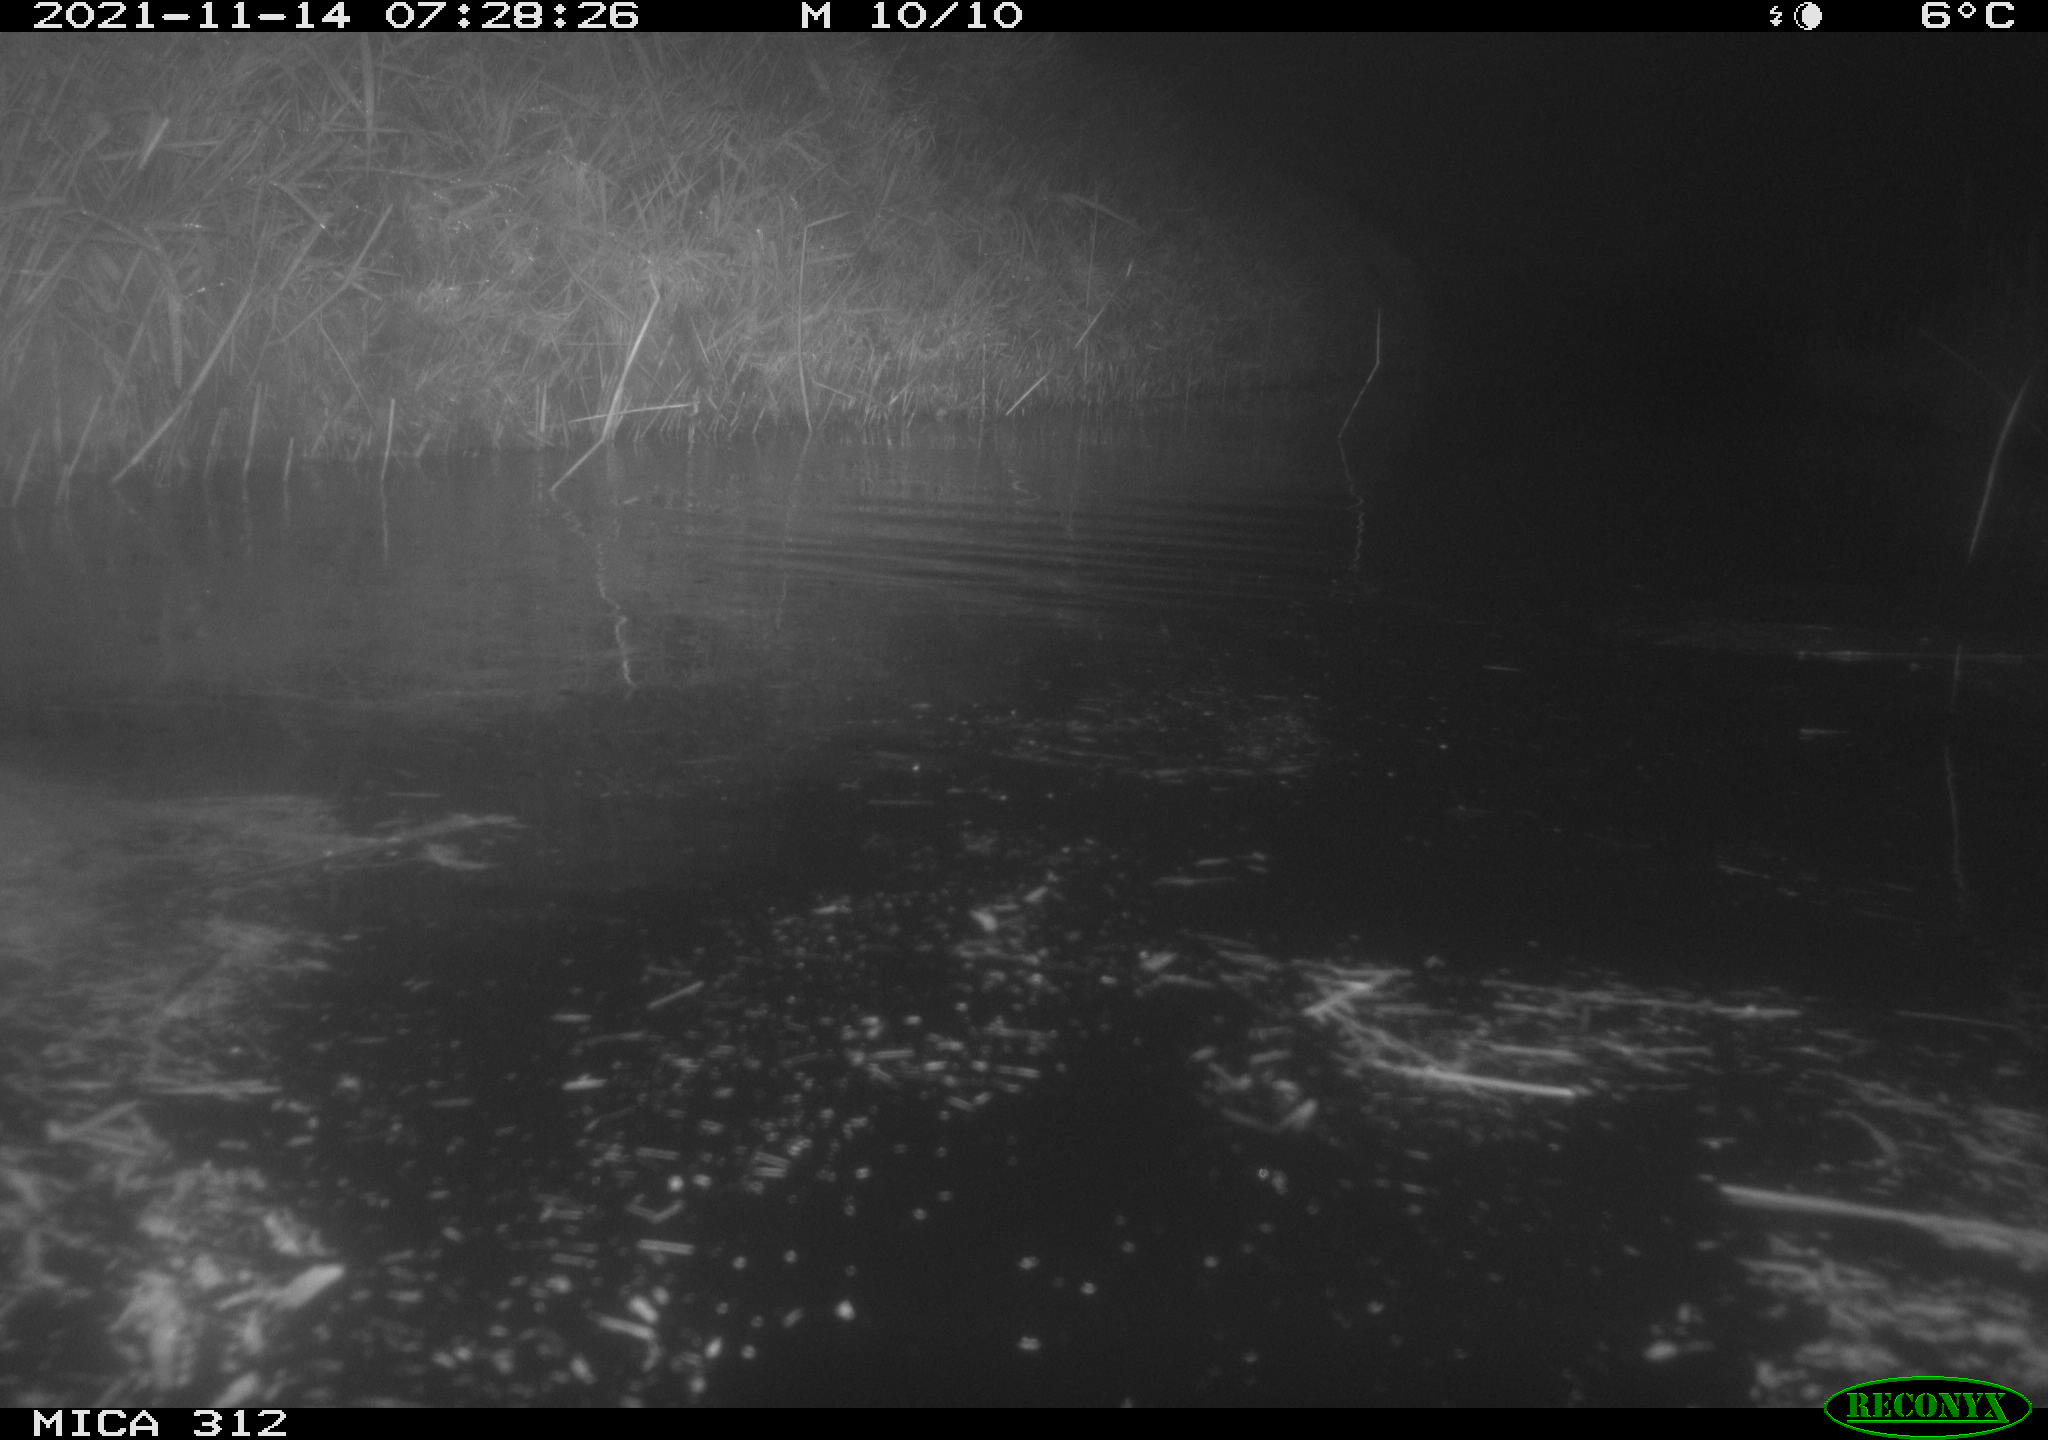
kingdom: Animalia
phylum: Chordata
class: Mammalia
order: Rodentia
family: Muridae
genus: Rattus
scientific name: Rattus norvegicus
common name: Brown rat
